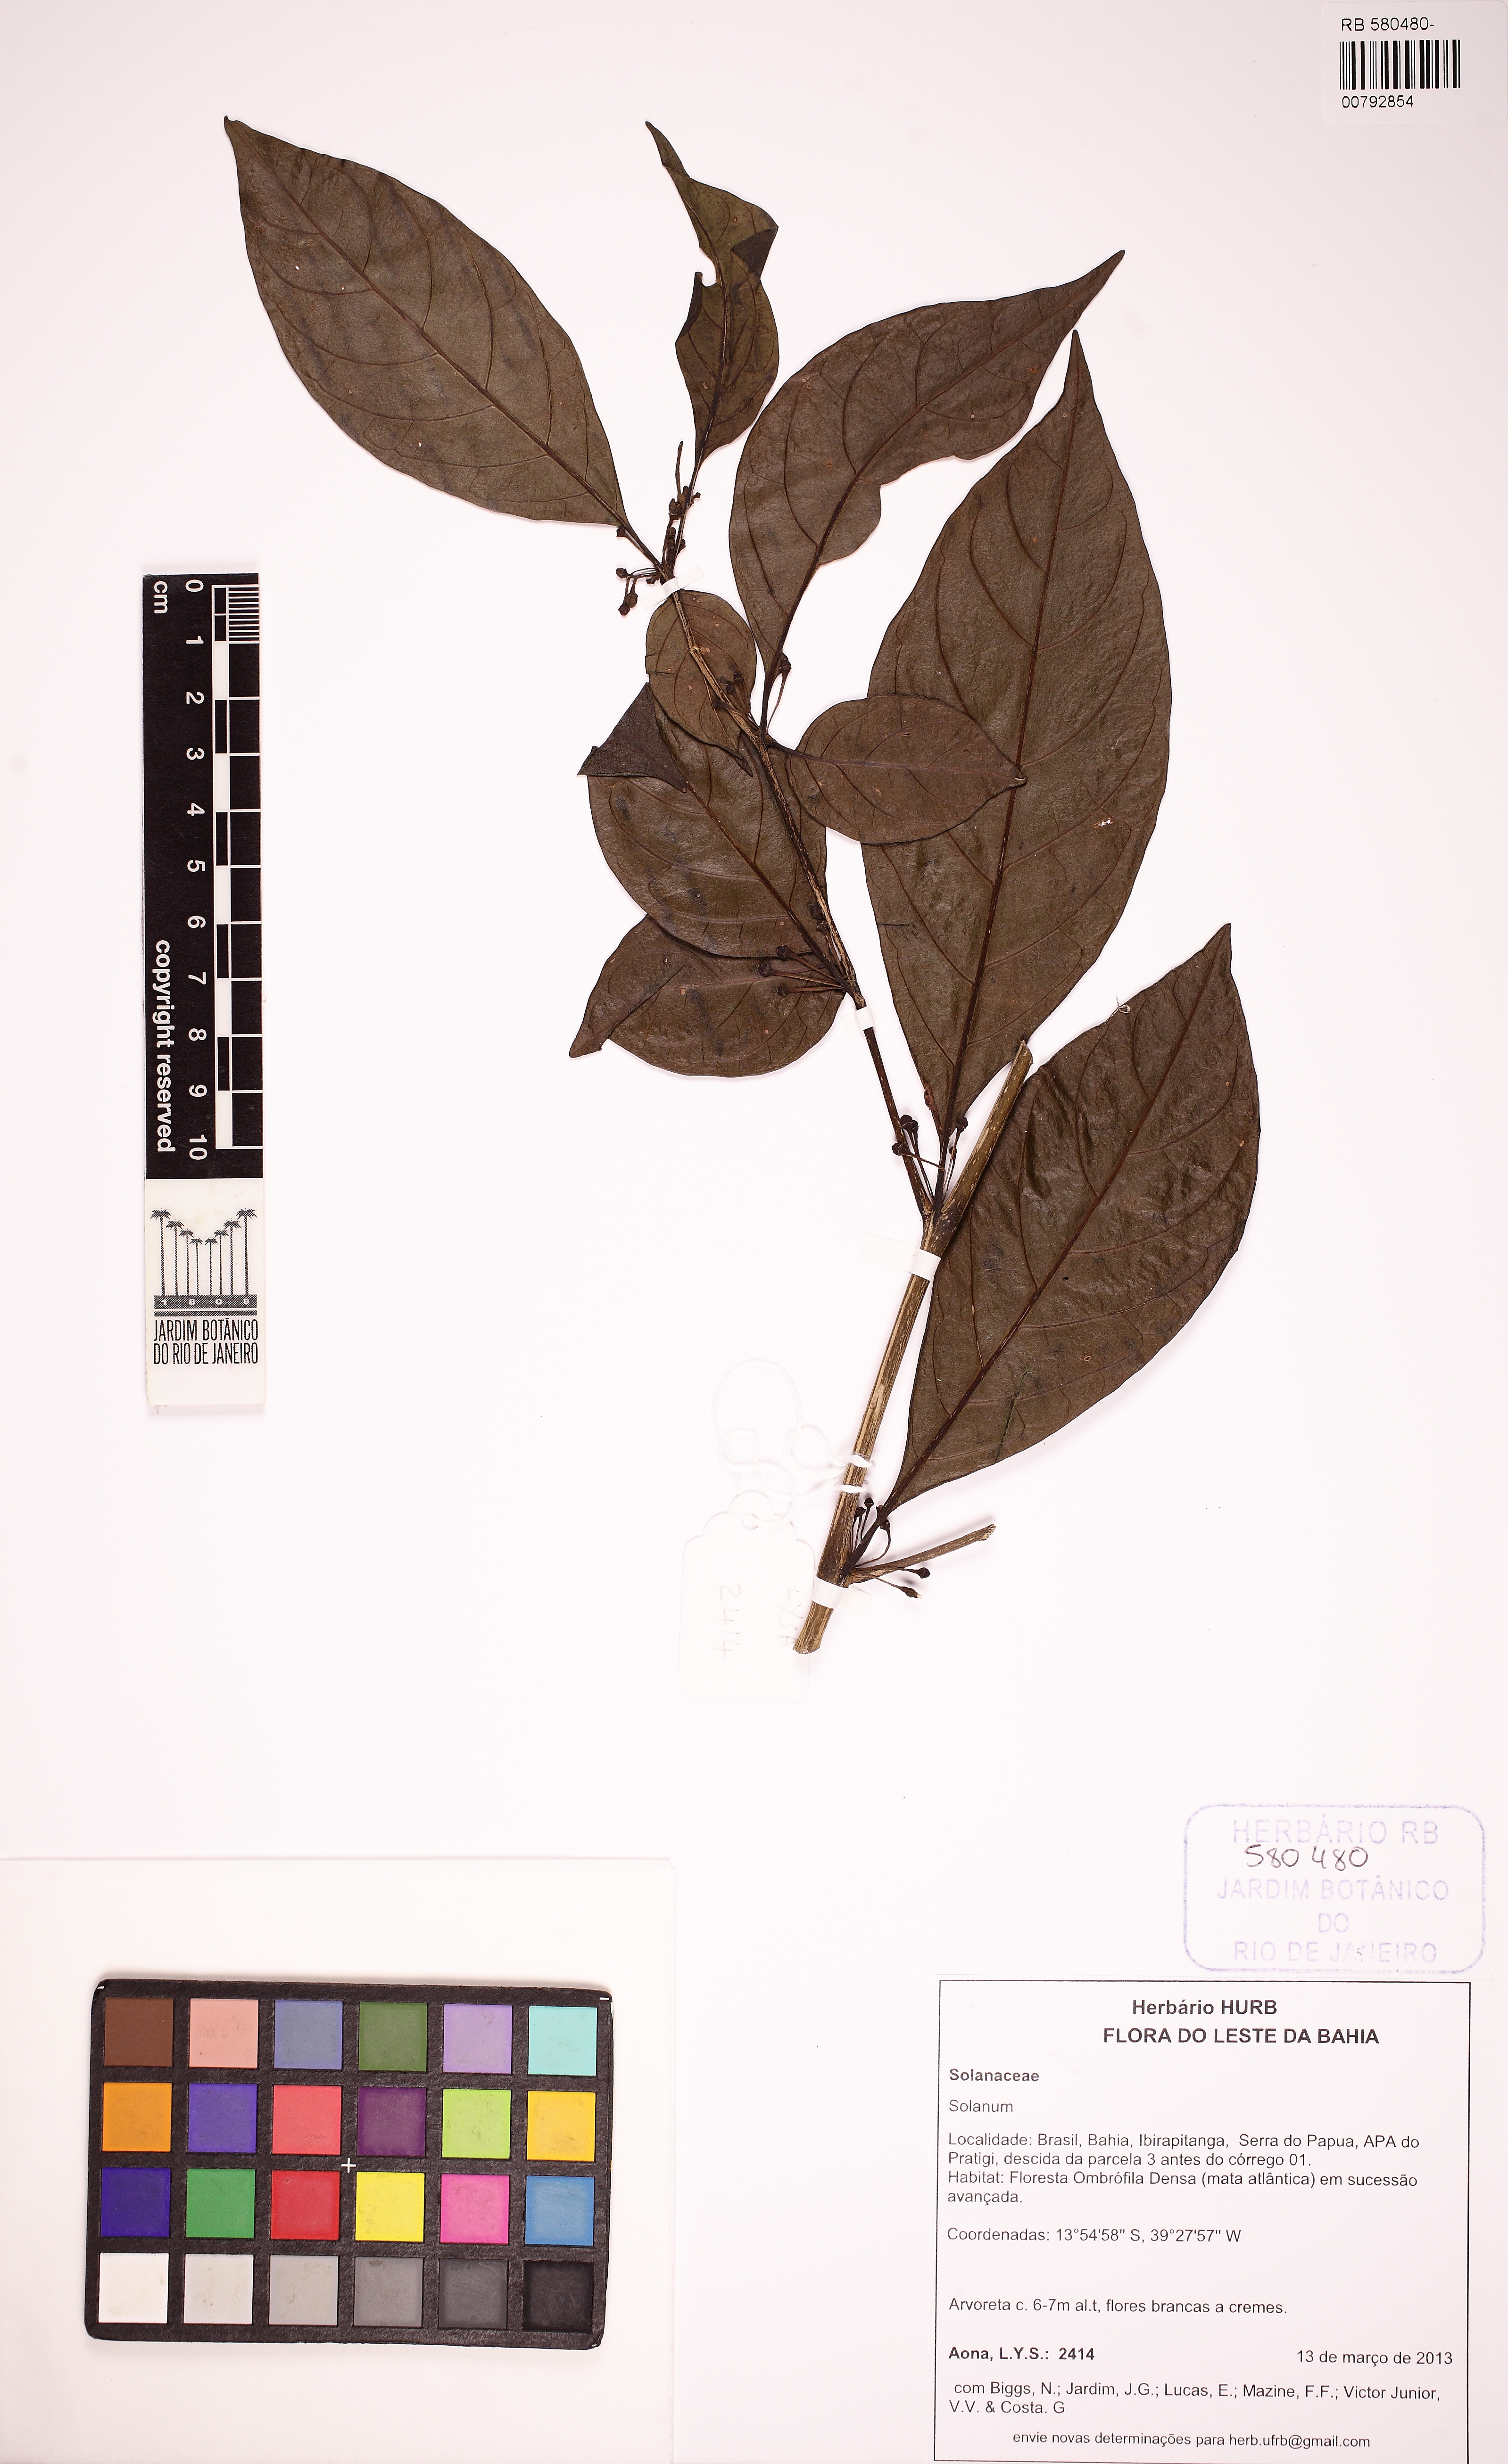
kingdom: Plantae
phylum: Tracheophyta
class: Magnoliopsida
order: Solanales
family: Solanaceae
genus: Athenaea
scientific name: Athenaea fasciculata
